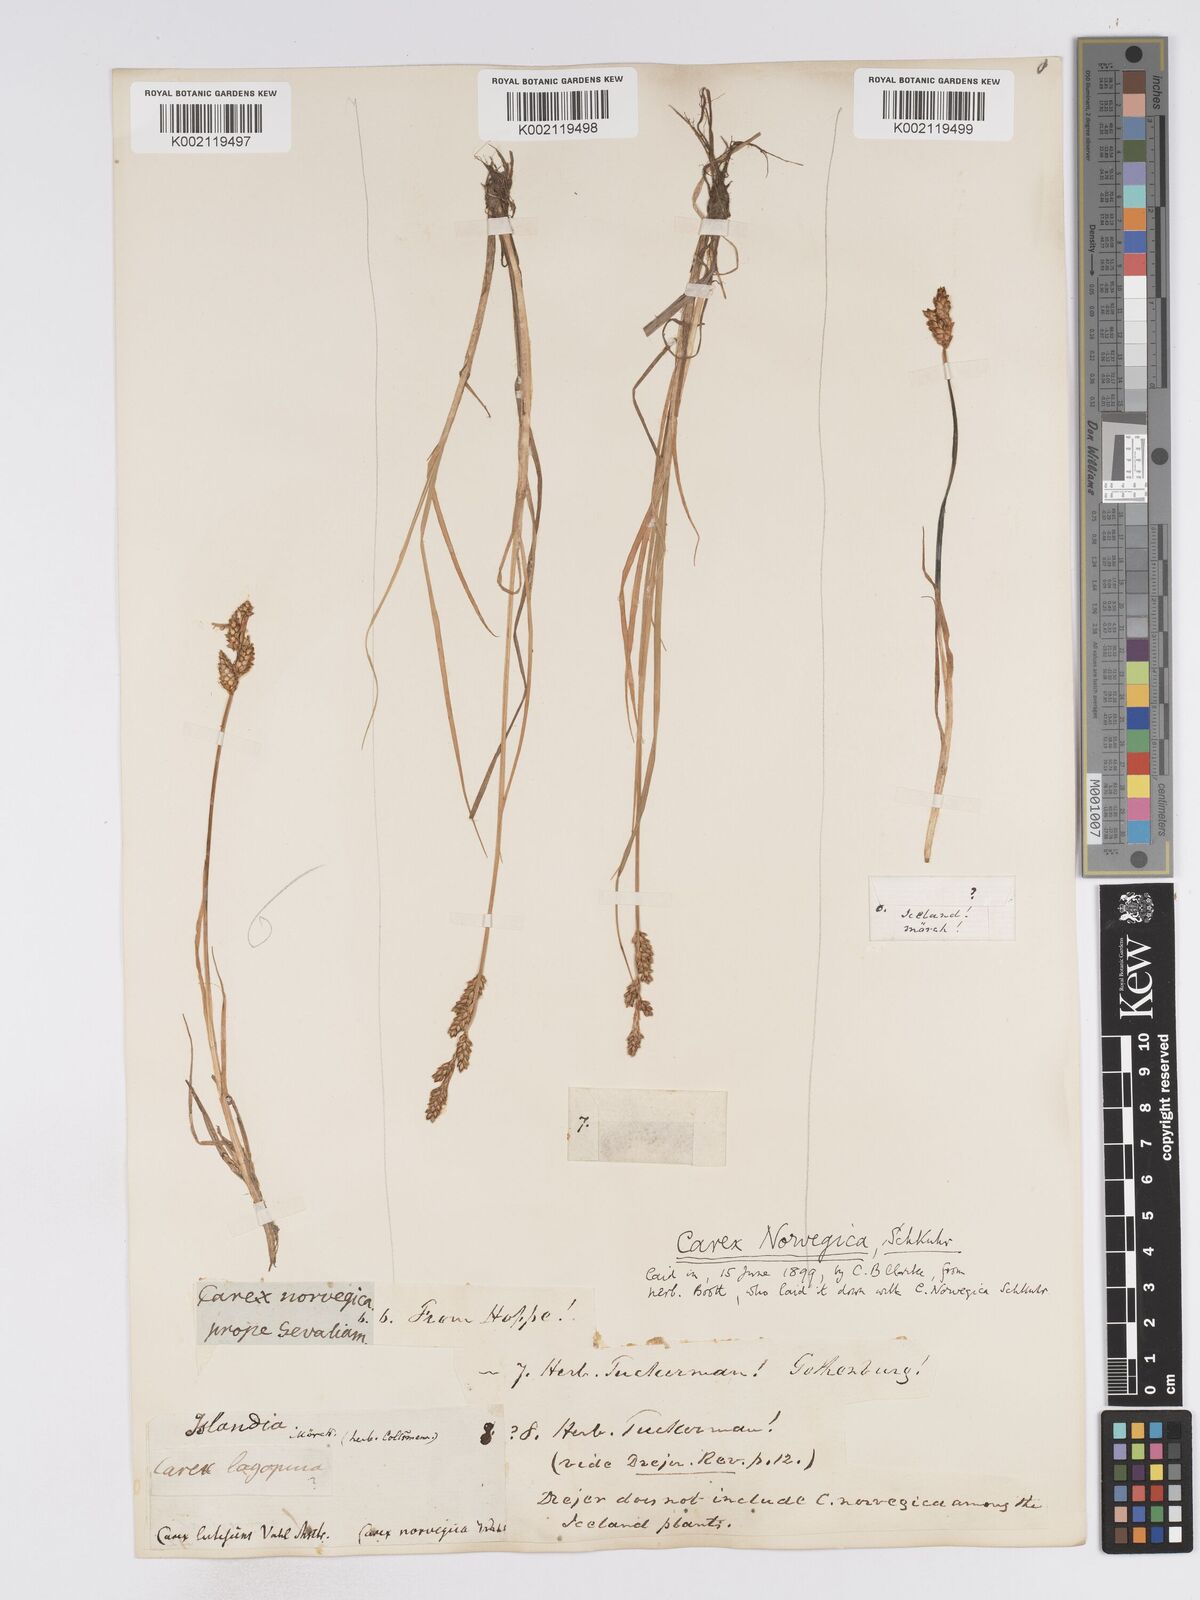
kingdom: Plantae
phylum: Tracheophyta
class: Liliopsida
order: Poales
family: Cyperaceae
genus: Carex
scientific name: Carex mackenziei
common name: Mackenzie's sedge
